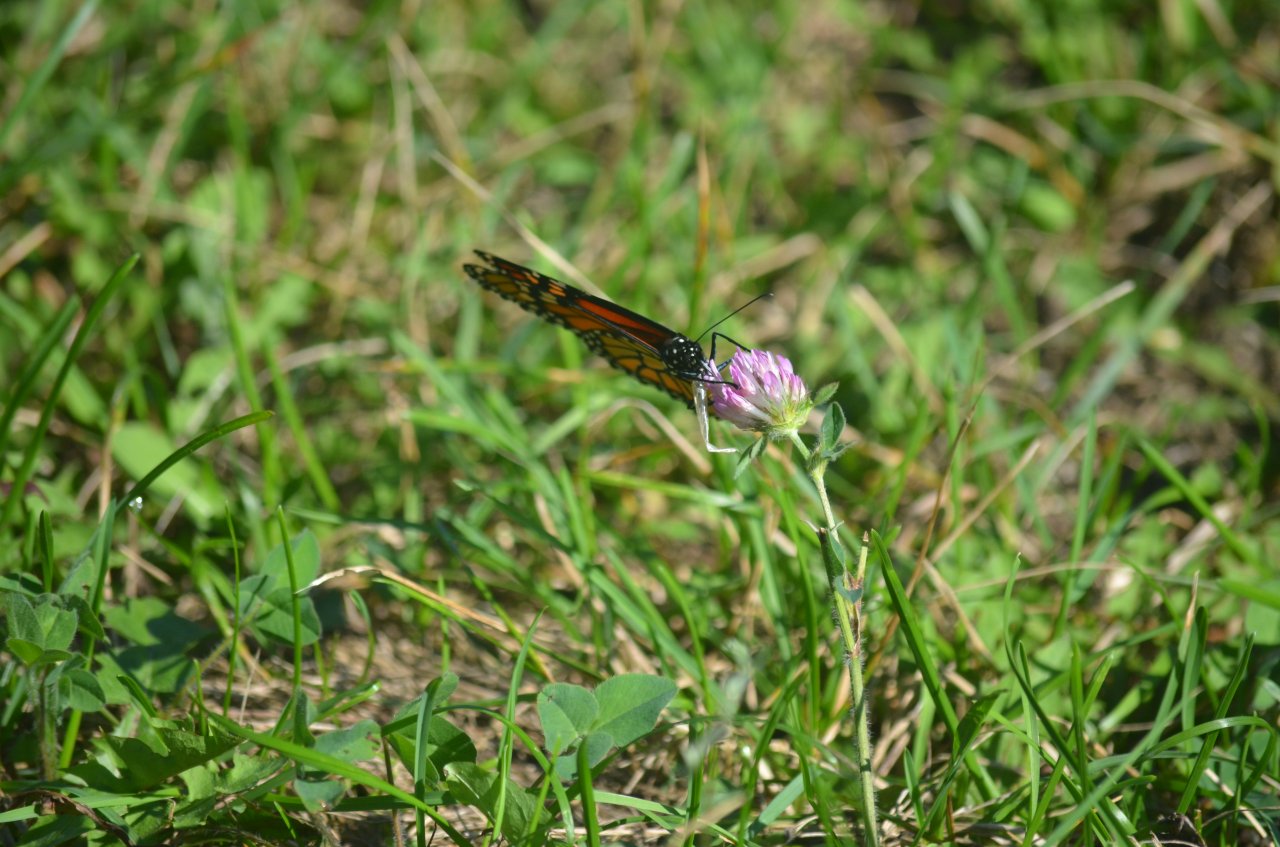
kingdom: Animalia
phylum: Arthropoda
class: Insecta
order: Lepidoptera
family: Nymphalidae
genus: Danaus
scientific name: Danaus plexippus
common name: Monarch
